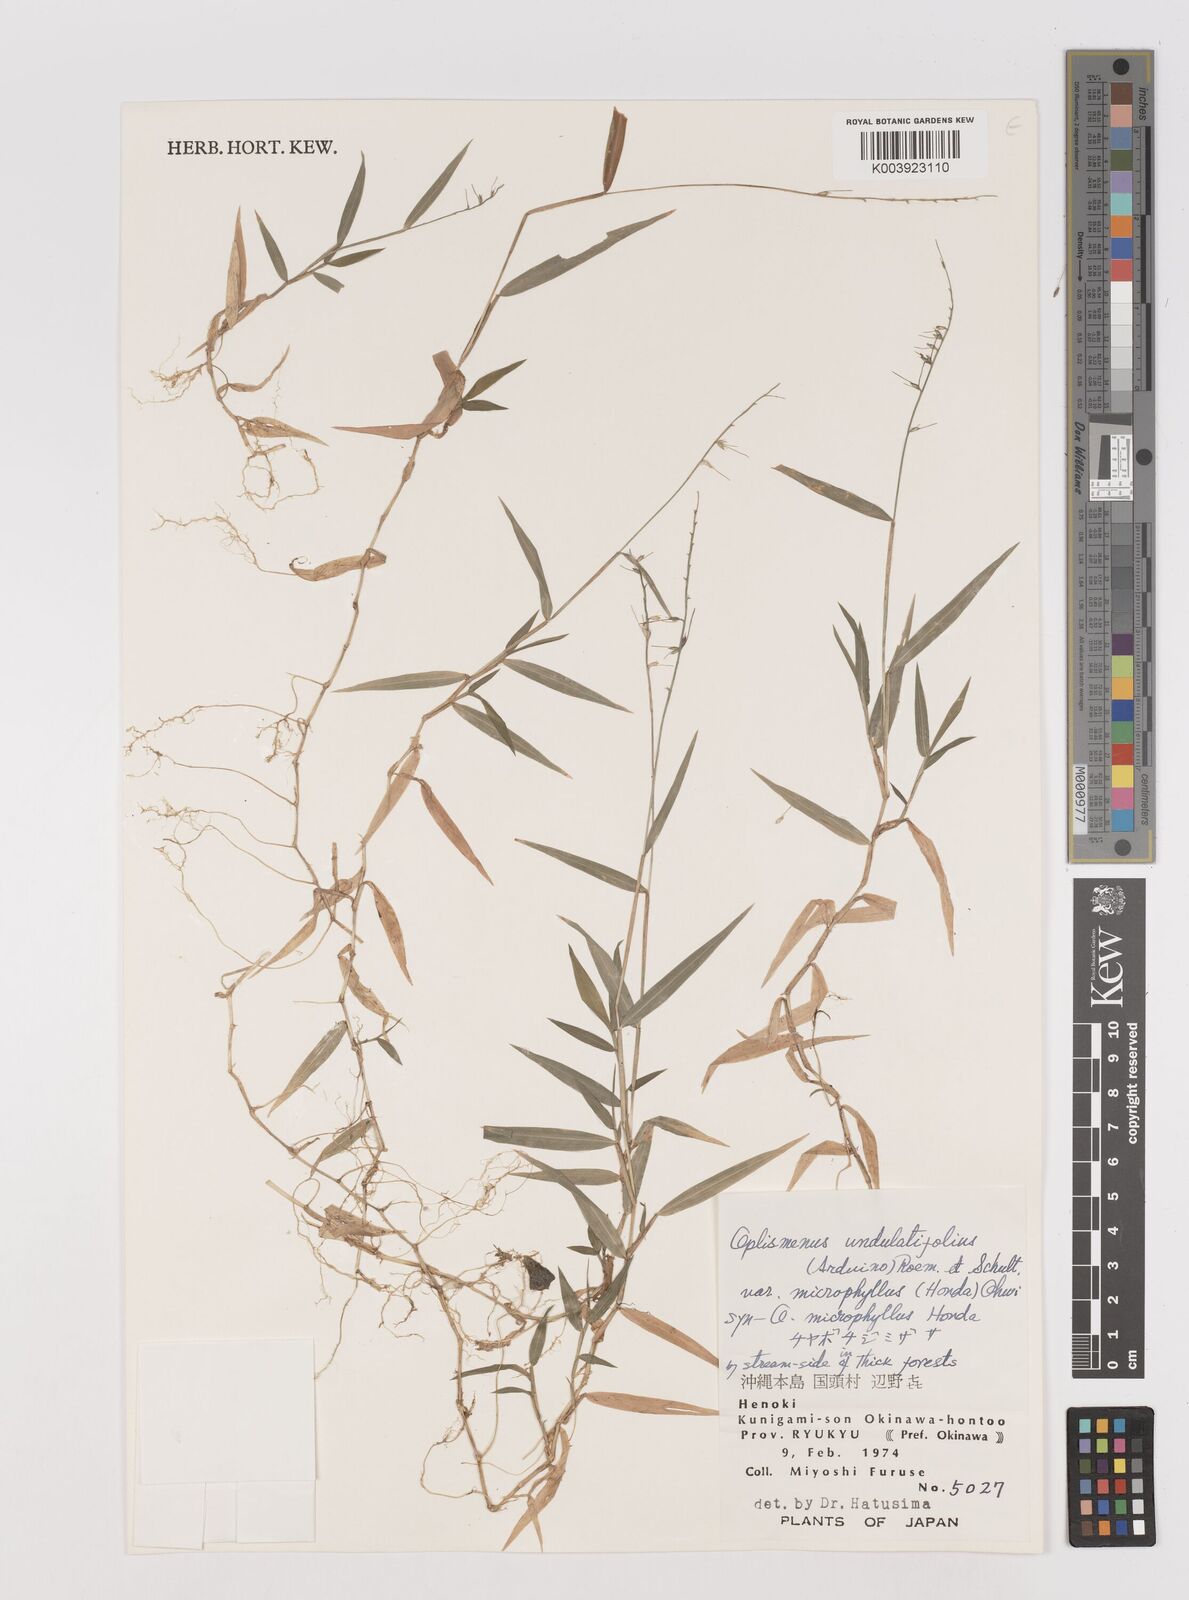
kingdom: Plantae
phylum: Tracheophyta
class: Liliopsida
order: Poales
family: Poaceae
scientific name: Poaceae
